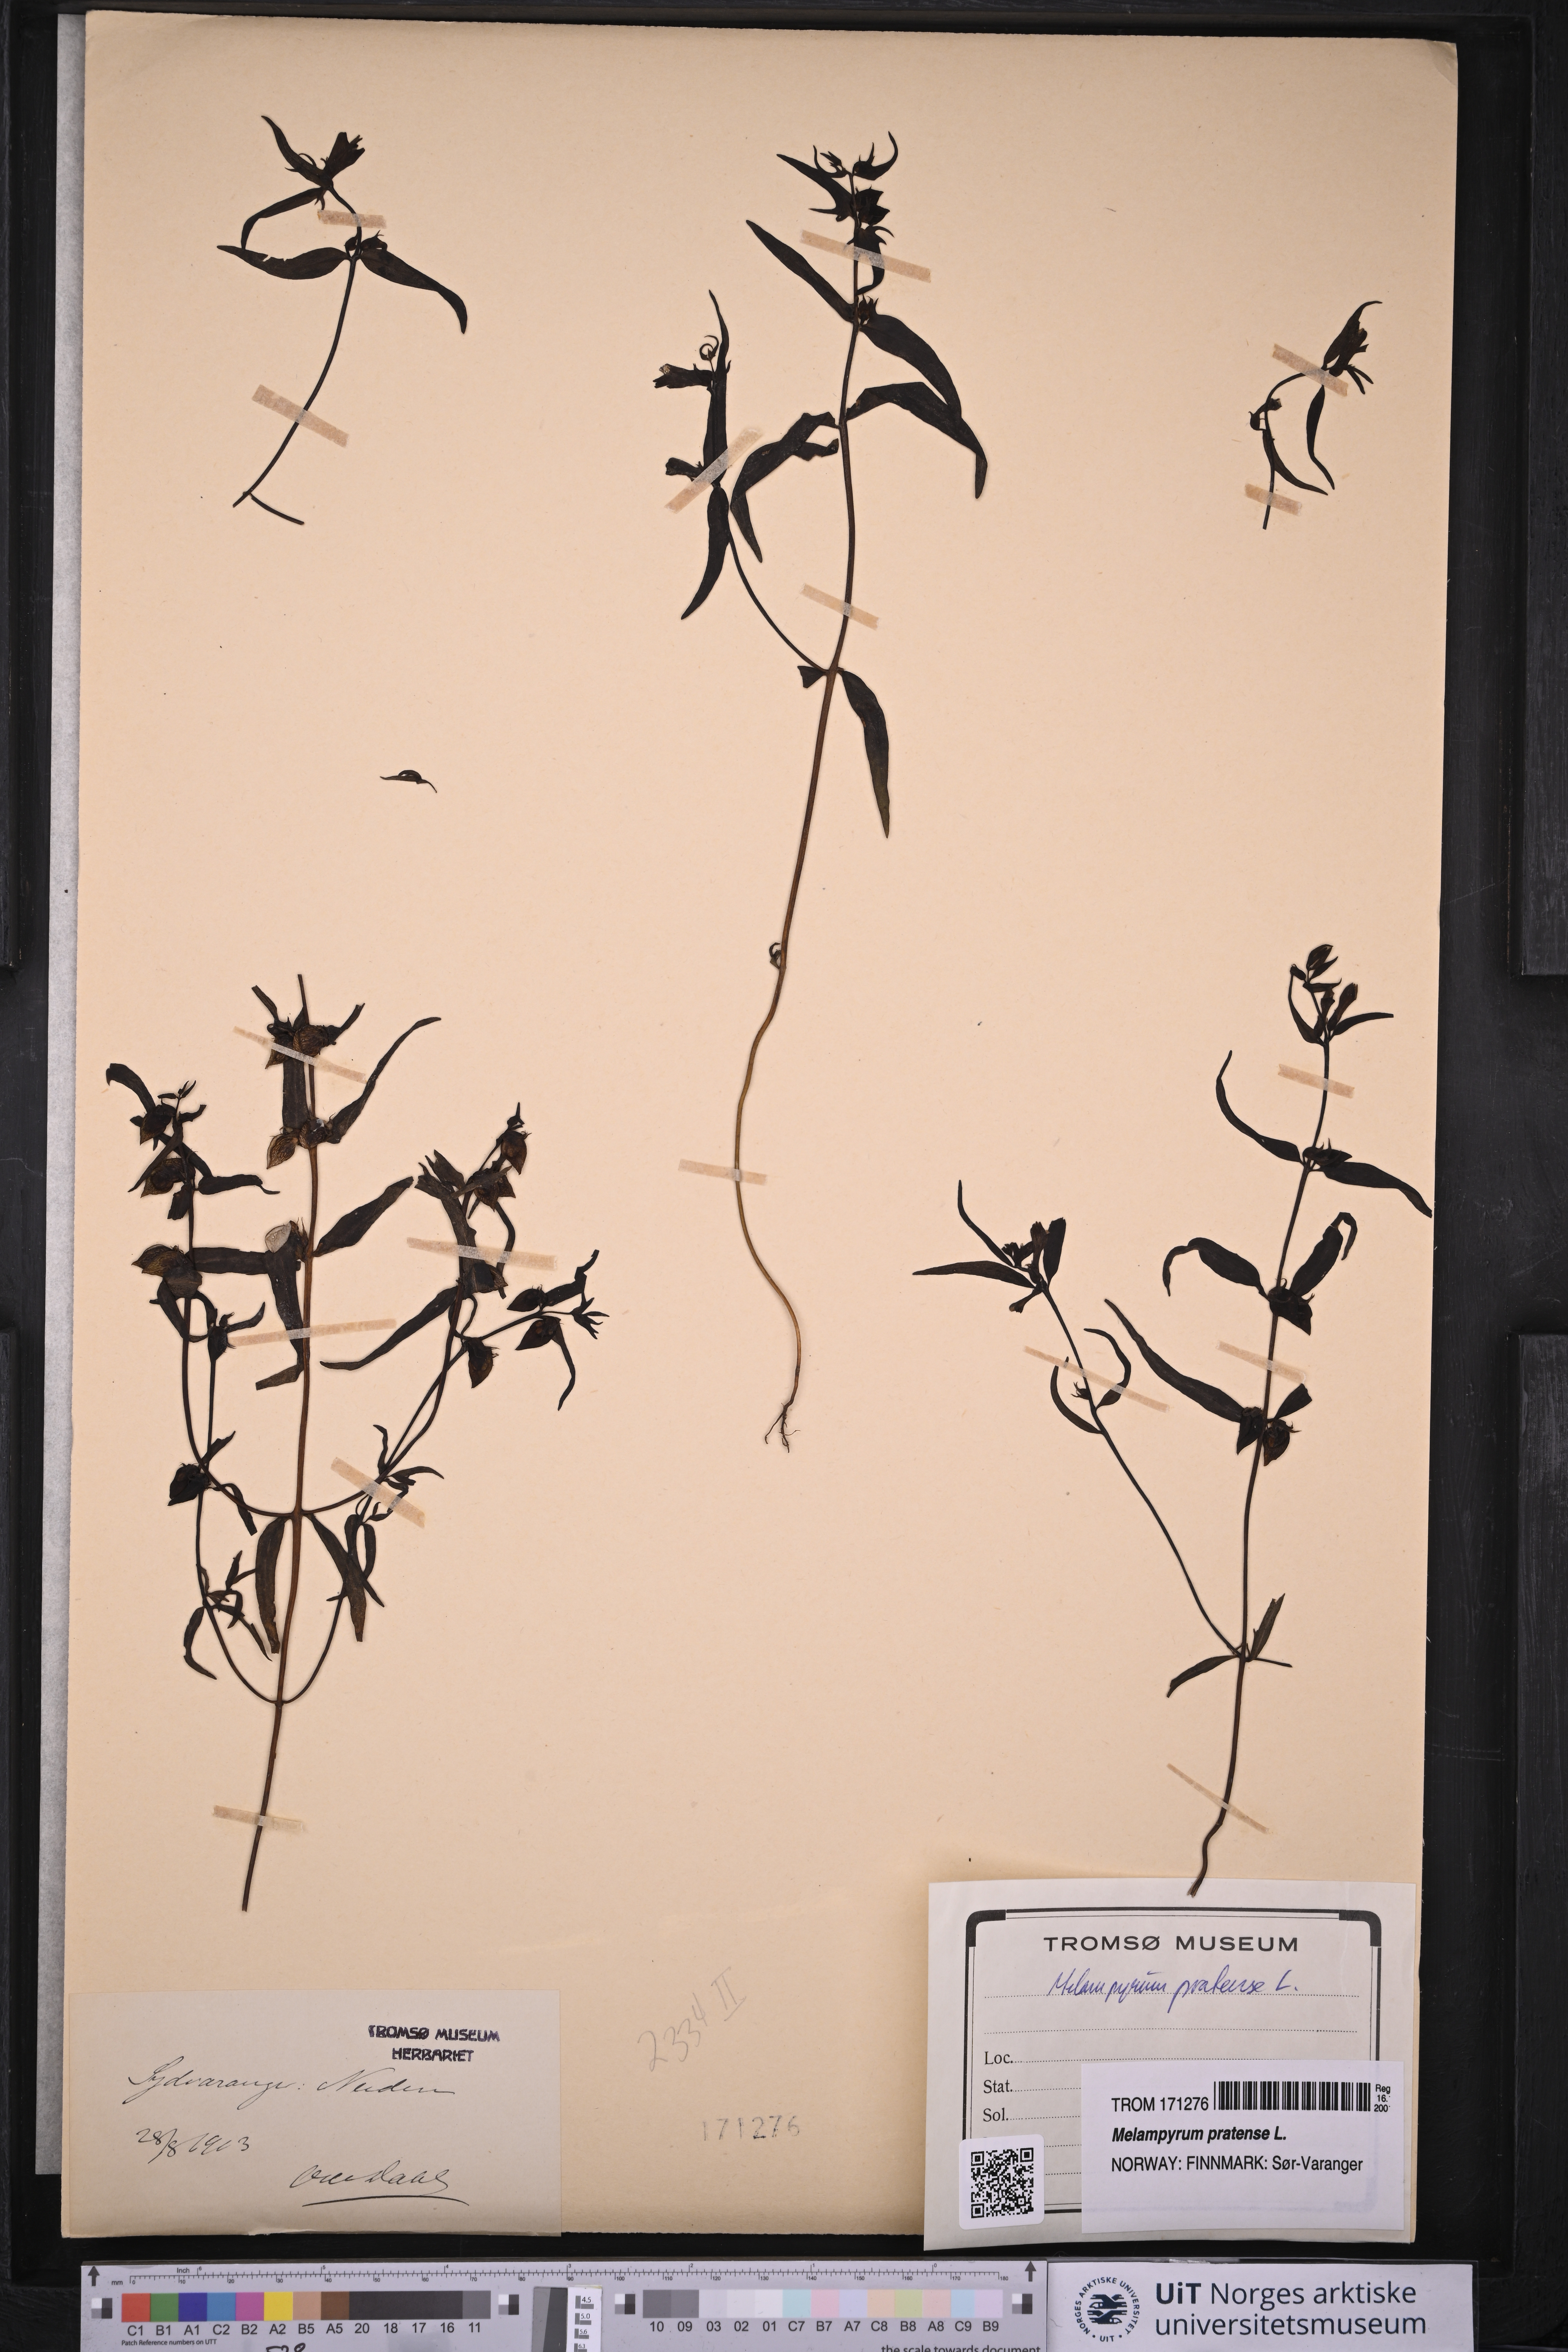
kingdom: Plantae
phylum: Tracheophyta
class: Magnoliopsida
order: Lamiales
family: Orobanchaceae
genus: Melampyrum
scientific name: Melampyrum pratense
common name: Common cow-wheat
